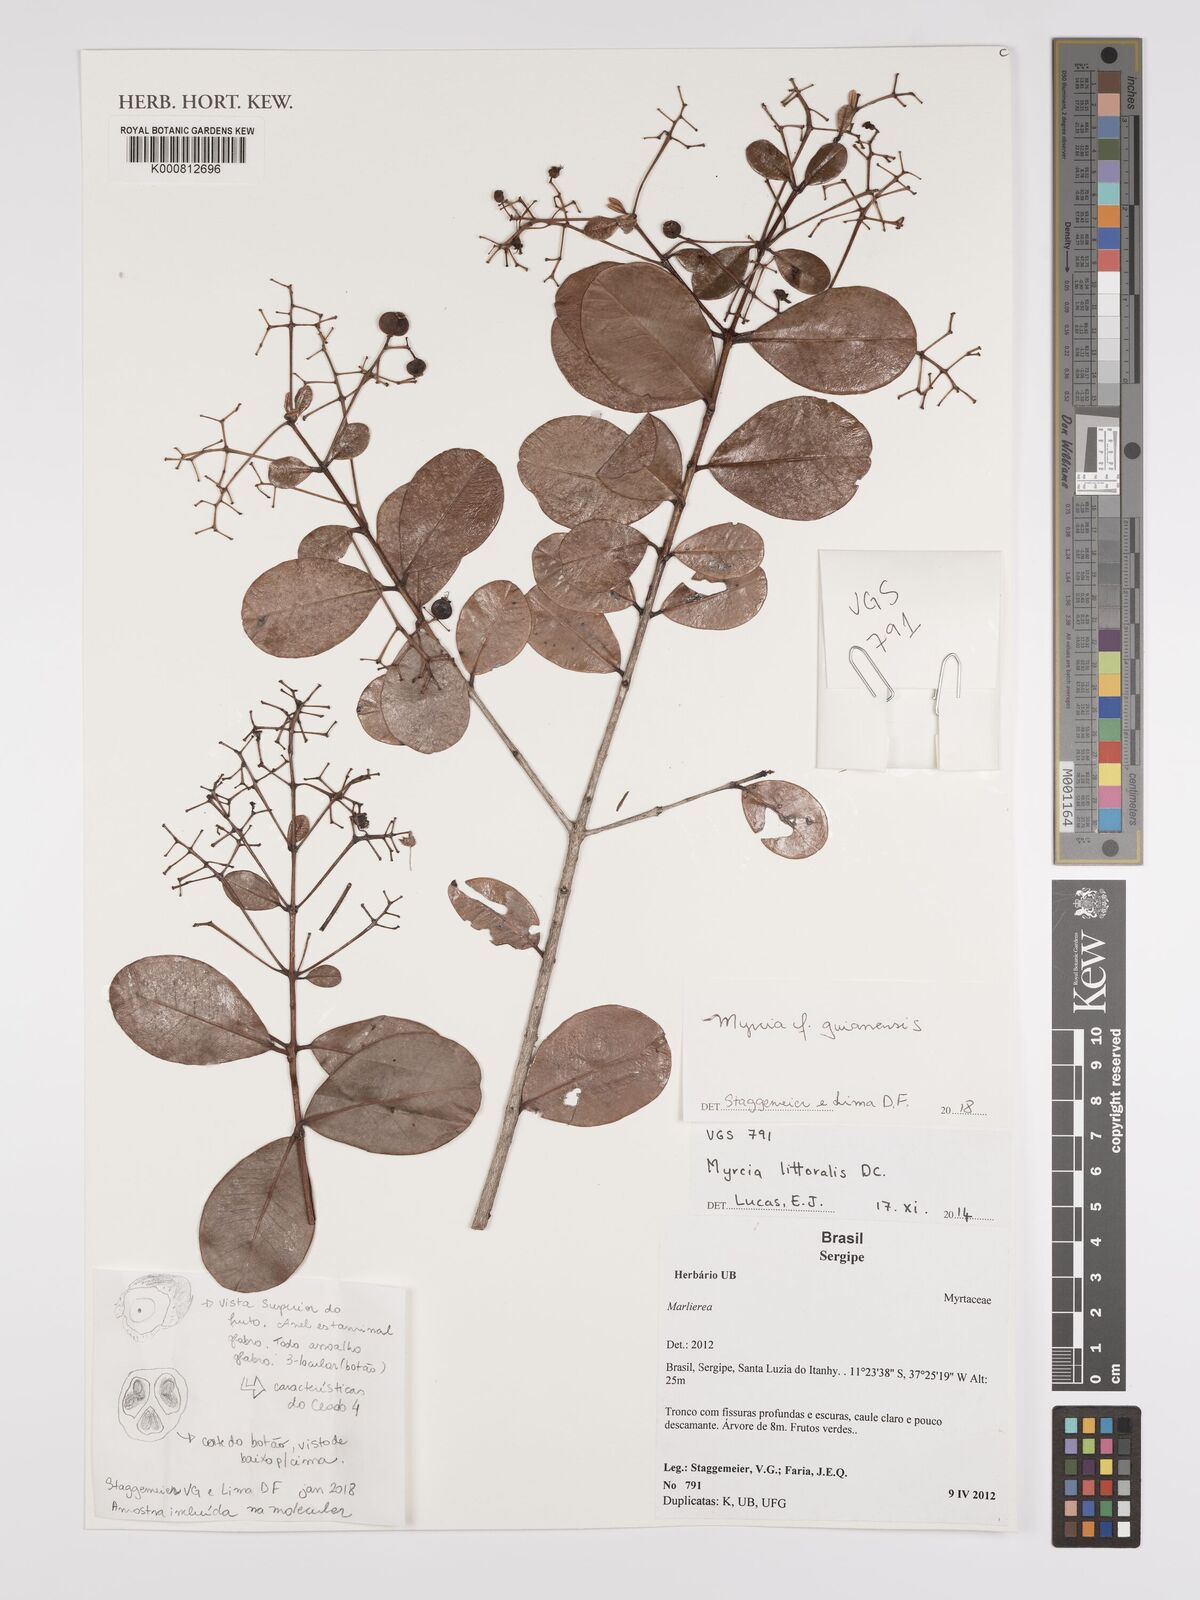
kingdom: Plantae
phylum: Tracheophyta
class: Magnoliopsida
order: Myrtales
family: Myrtaceae
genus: Myrcia
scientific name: Myrcia guianensis
